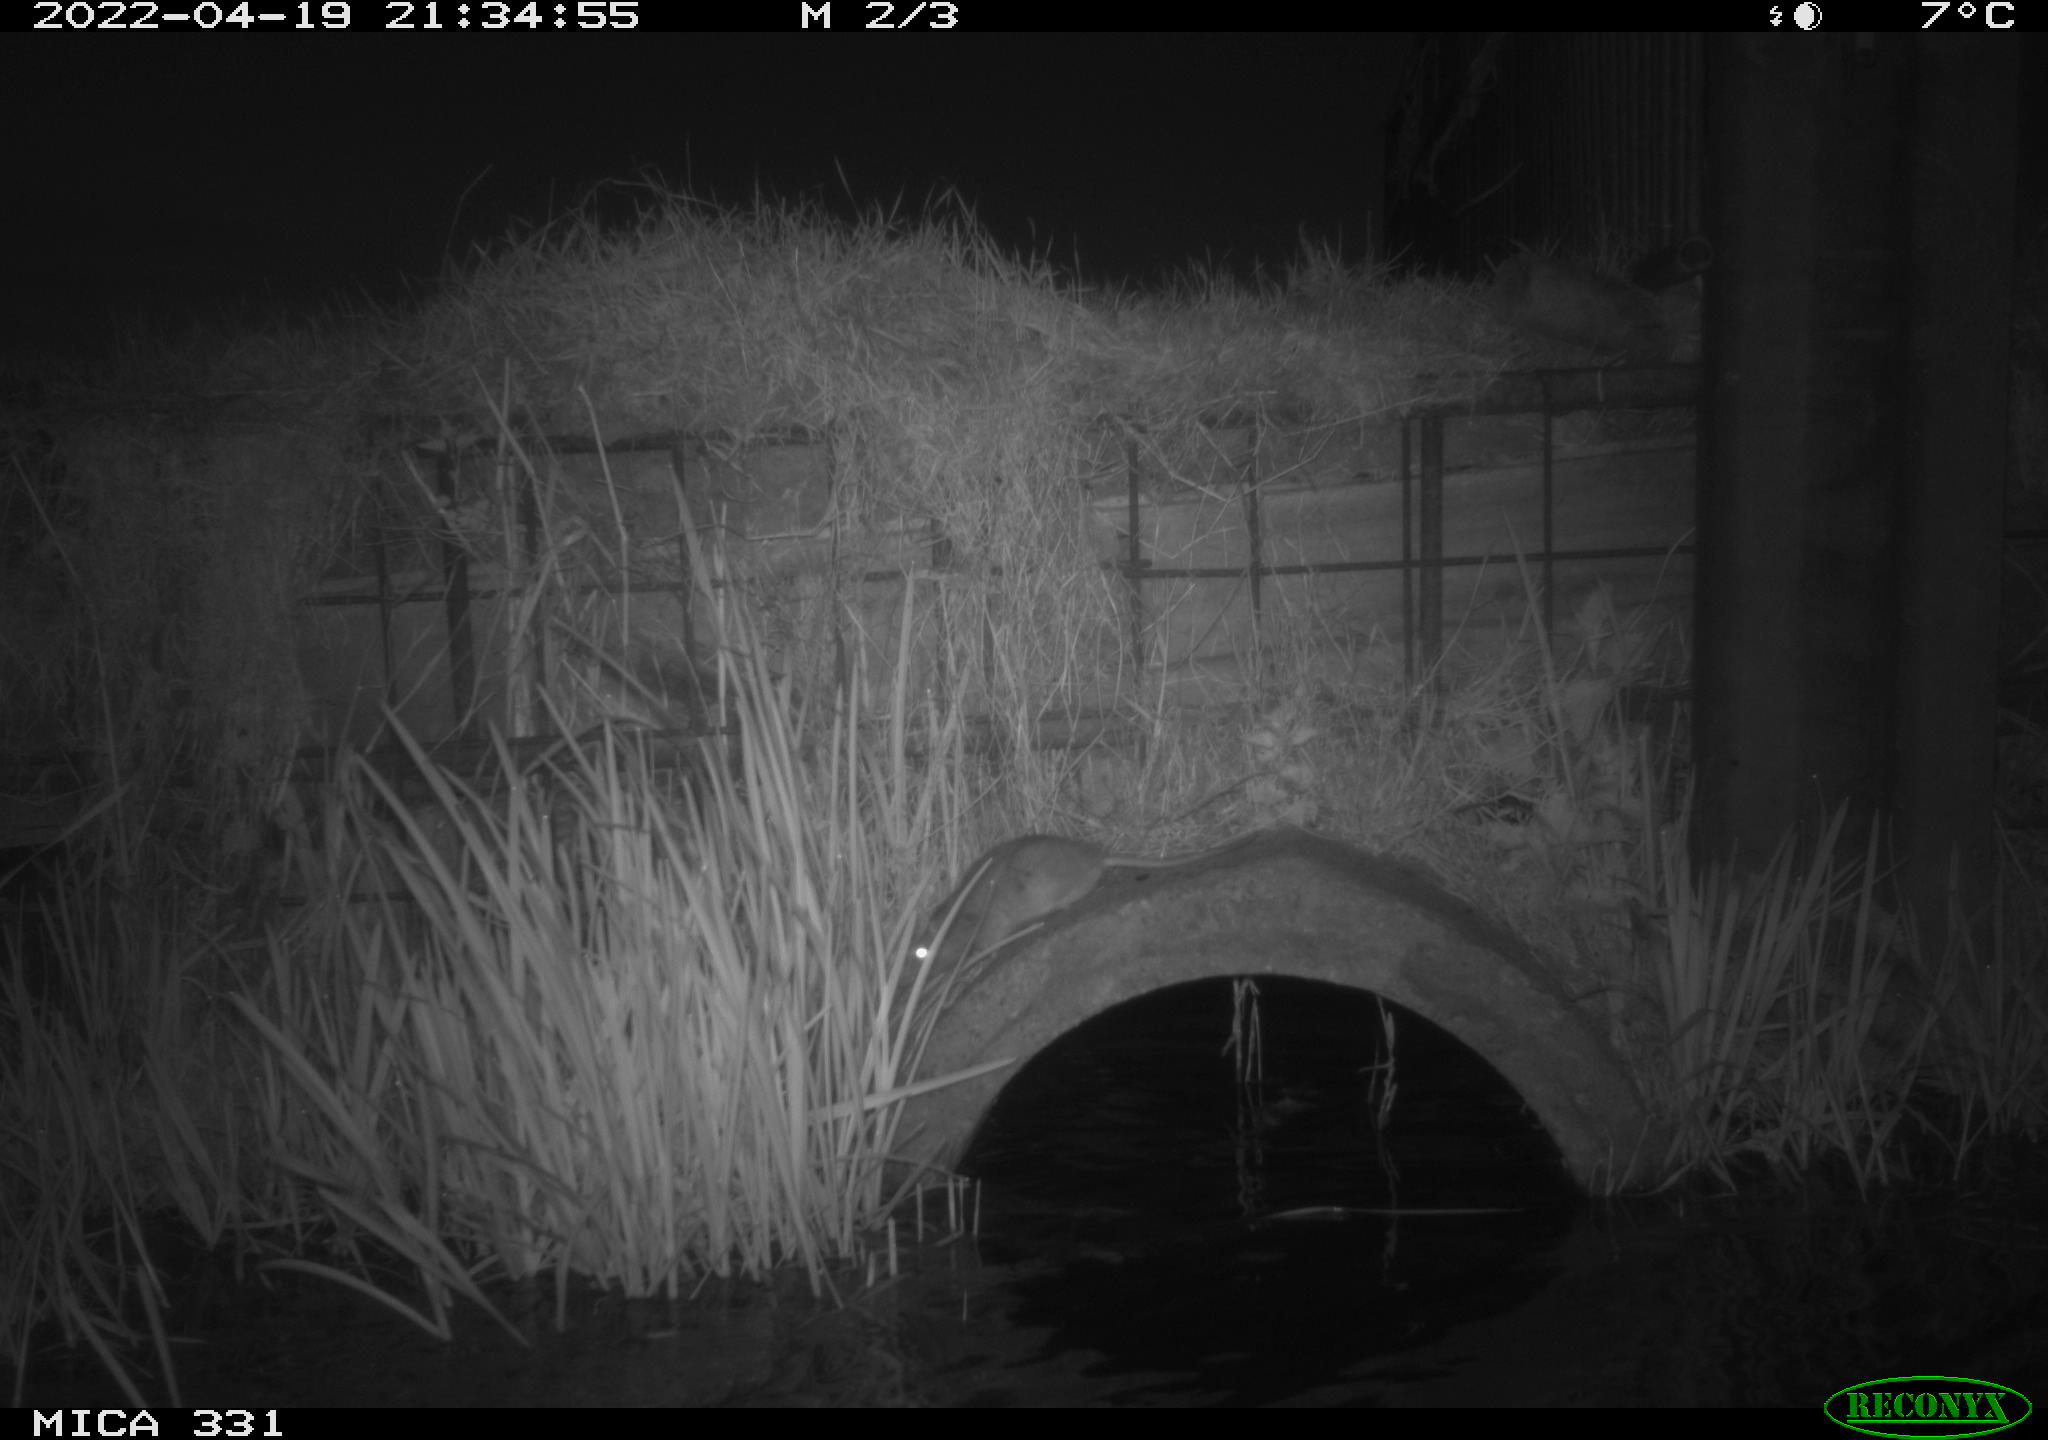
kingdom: Animalia
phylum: Chordata
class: Mammalia
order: Rodentia
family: Muridae
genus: Rattus
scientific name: Rattus norvegicus
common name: Brown rat
